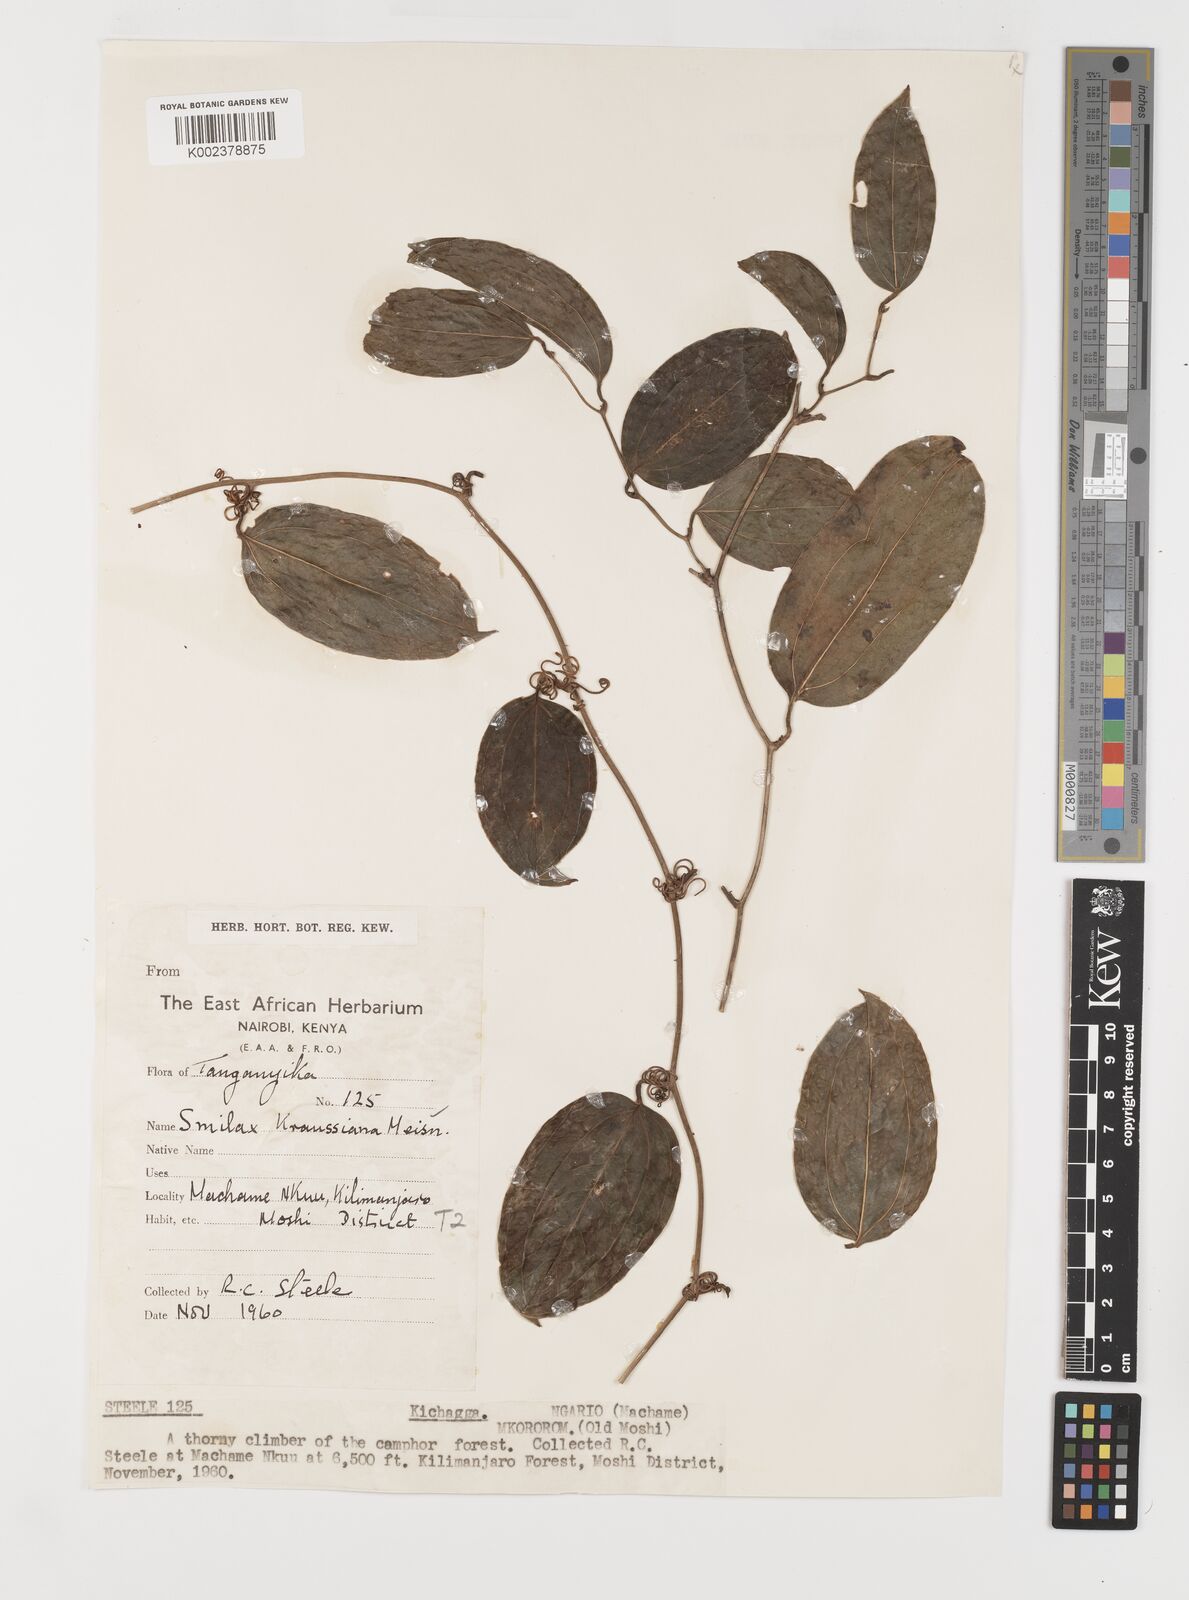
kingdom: Plantae
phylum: Tracheophyta
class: Liliopsida
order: Liliales
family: Smilacaceae
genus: Smilax
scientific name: Smilax anceps
